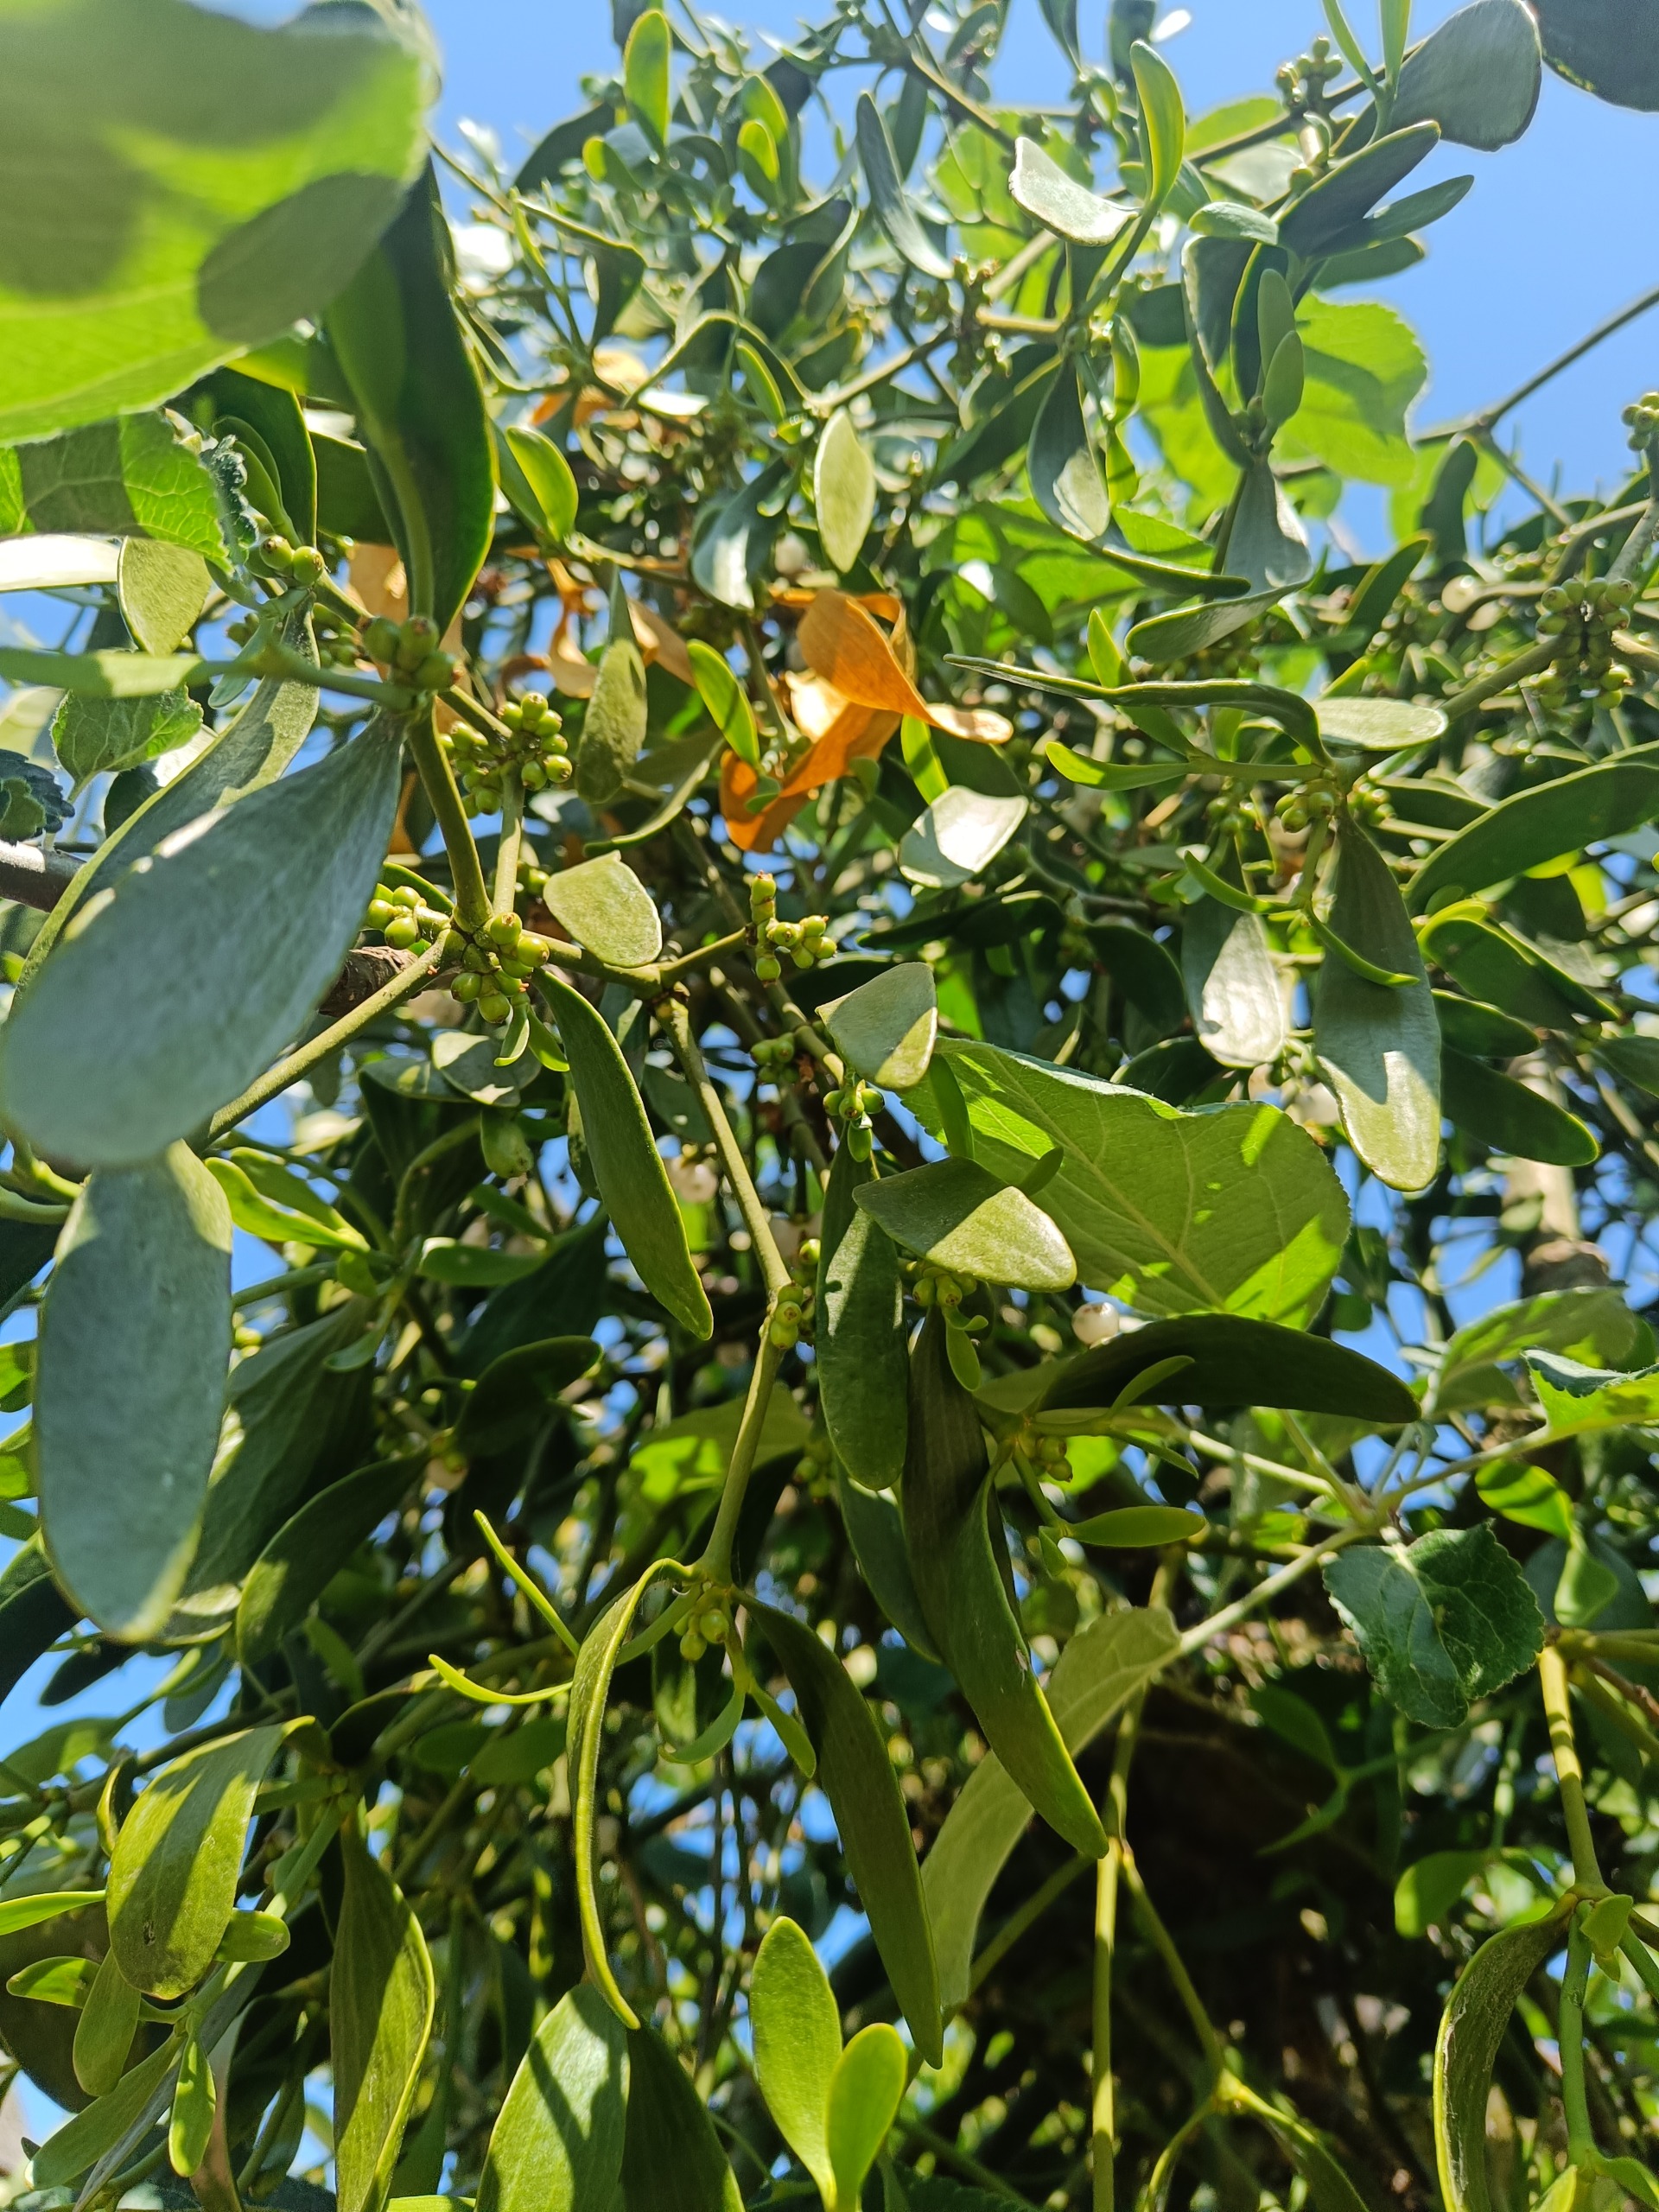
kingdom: Plantae
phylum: Tracheophyta
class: Magnoliopsida
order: Santalales
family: Viscaceae
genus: Viscum
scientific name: Viscum album
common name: Mistelten
